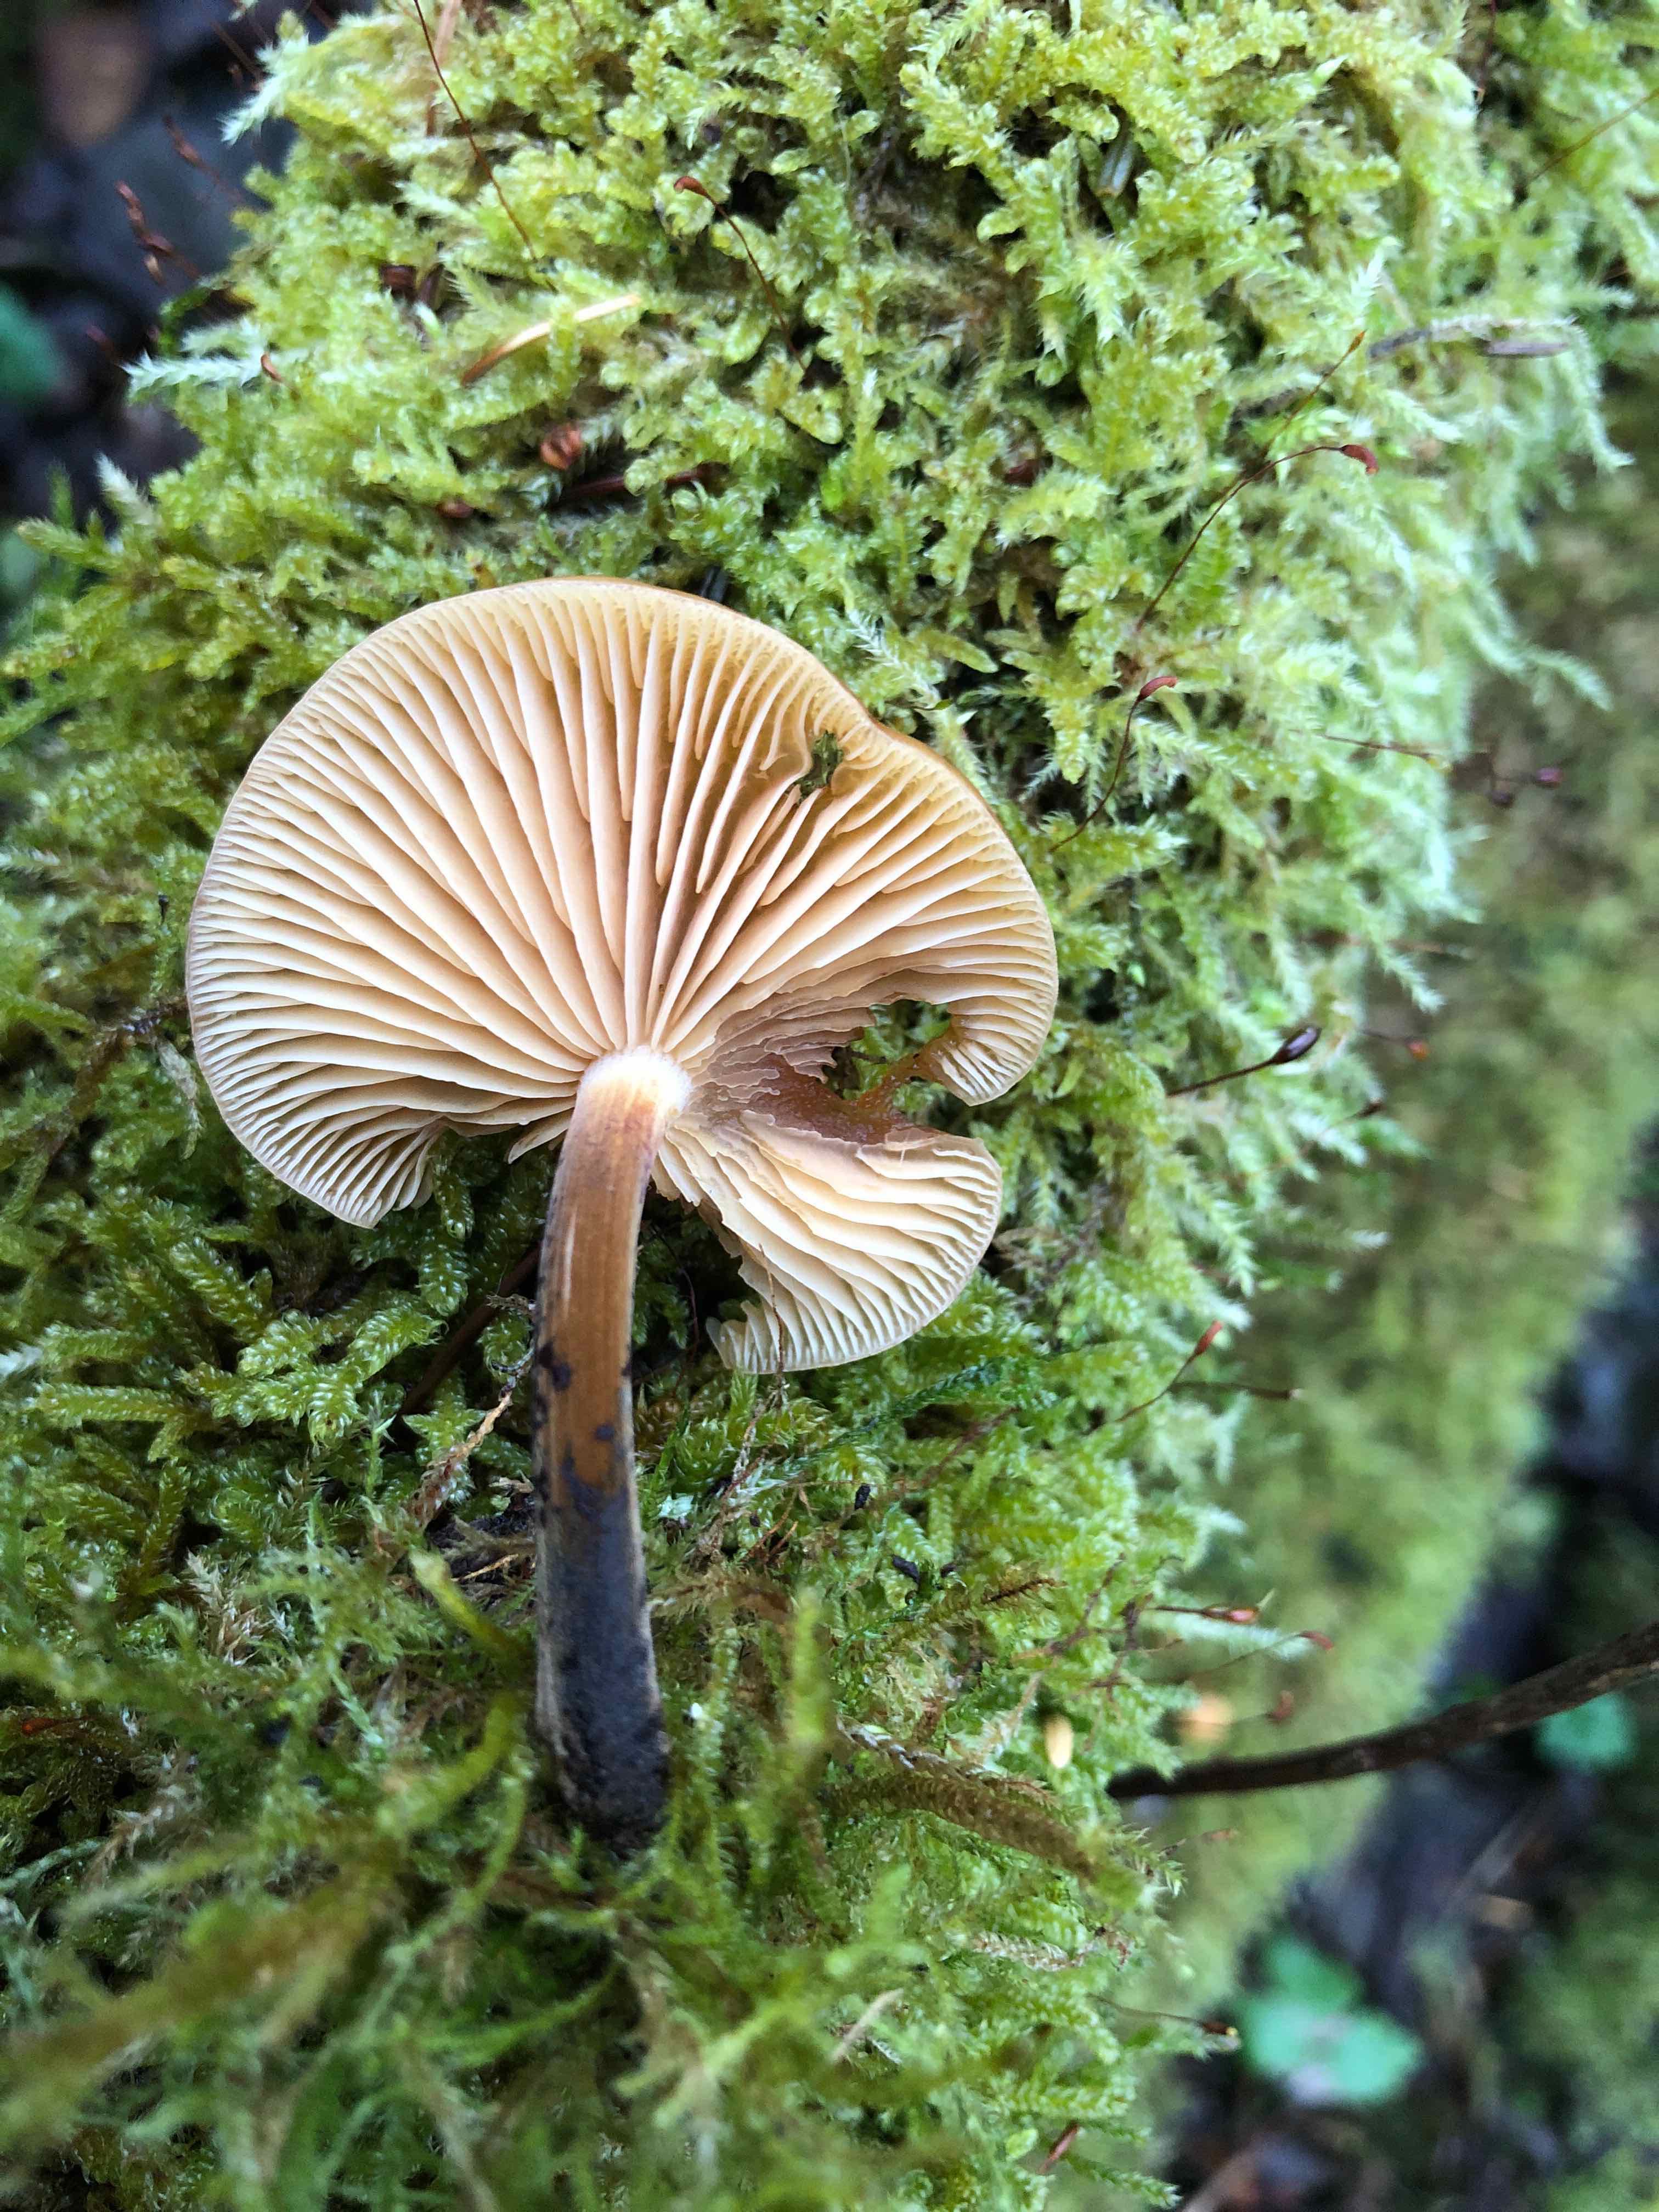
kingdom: Fungi
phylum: Basidiomycota
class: Agaricomycetes
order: Agaricales
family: Physalacriaceae
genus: Flammulina
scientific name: Flammulina elastica
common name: pile-fløjlsfod
